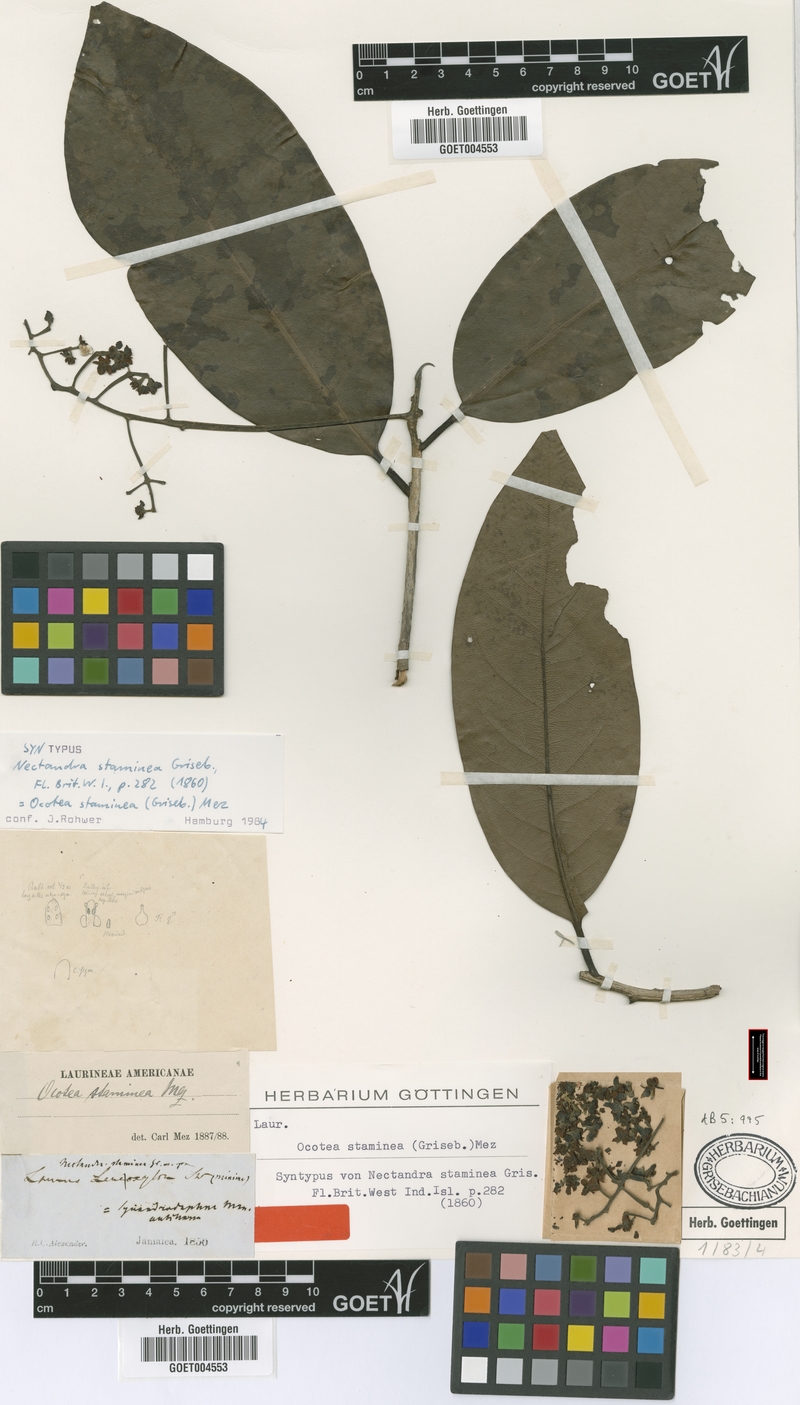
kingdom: Plantae
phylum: Tracheophyta
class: Magnoliopsida
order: Laurales
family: Lauraceae
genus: Mespilodaphne
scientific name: Mespilodaphne staminea
